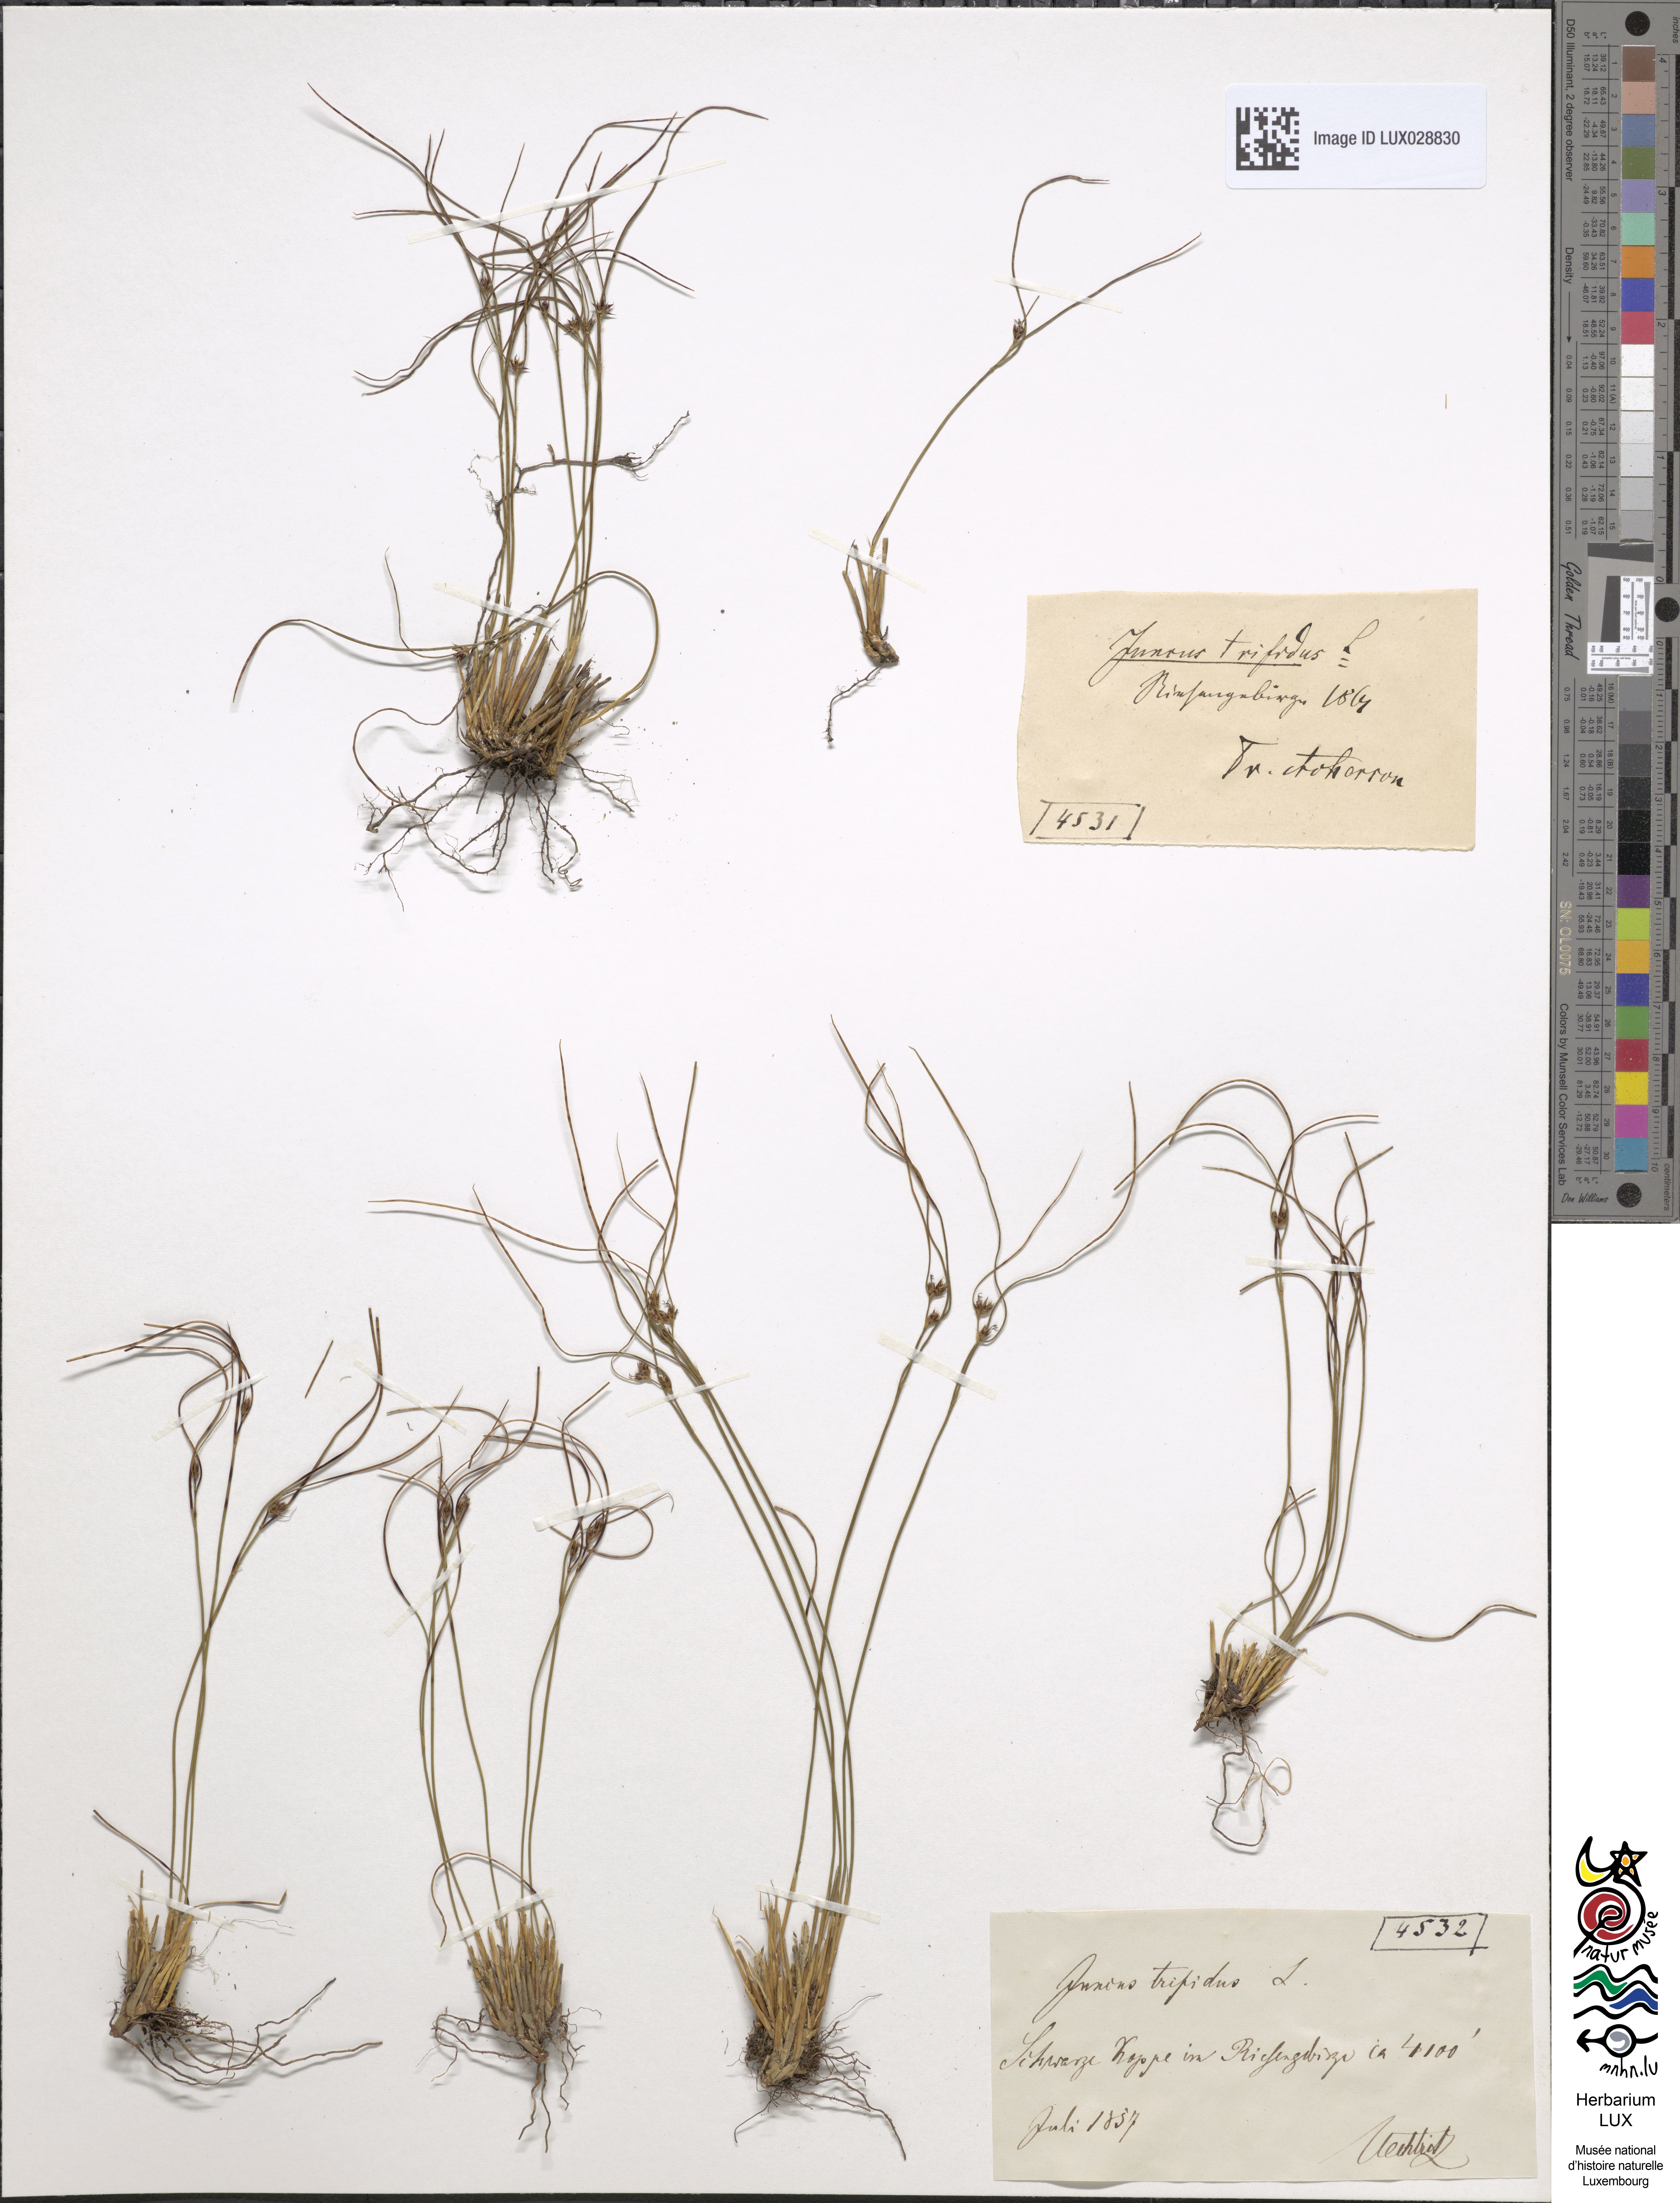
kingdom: Plantae
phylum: Tracheophyta
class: Liliopsida
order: Poales
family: Juncaceae
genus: Oreojuncus
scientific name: Oreojuncus trifidus
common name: Highland rush
